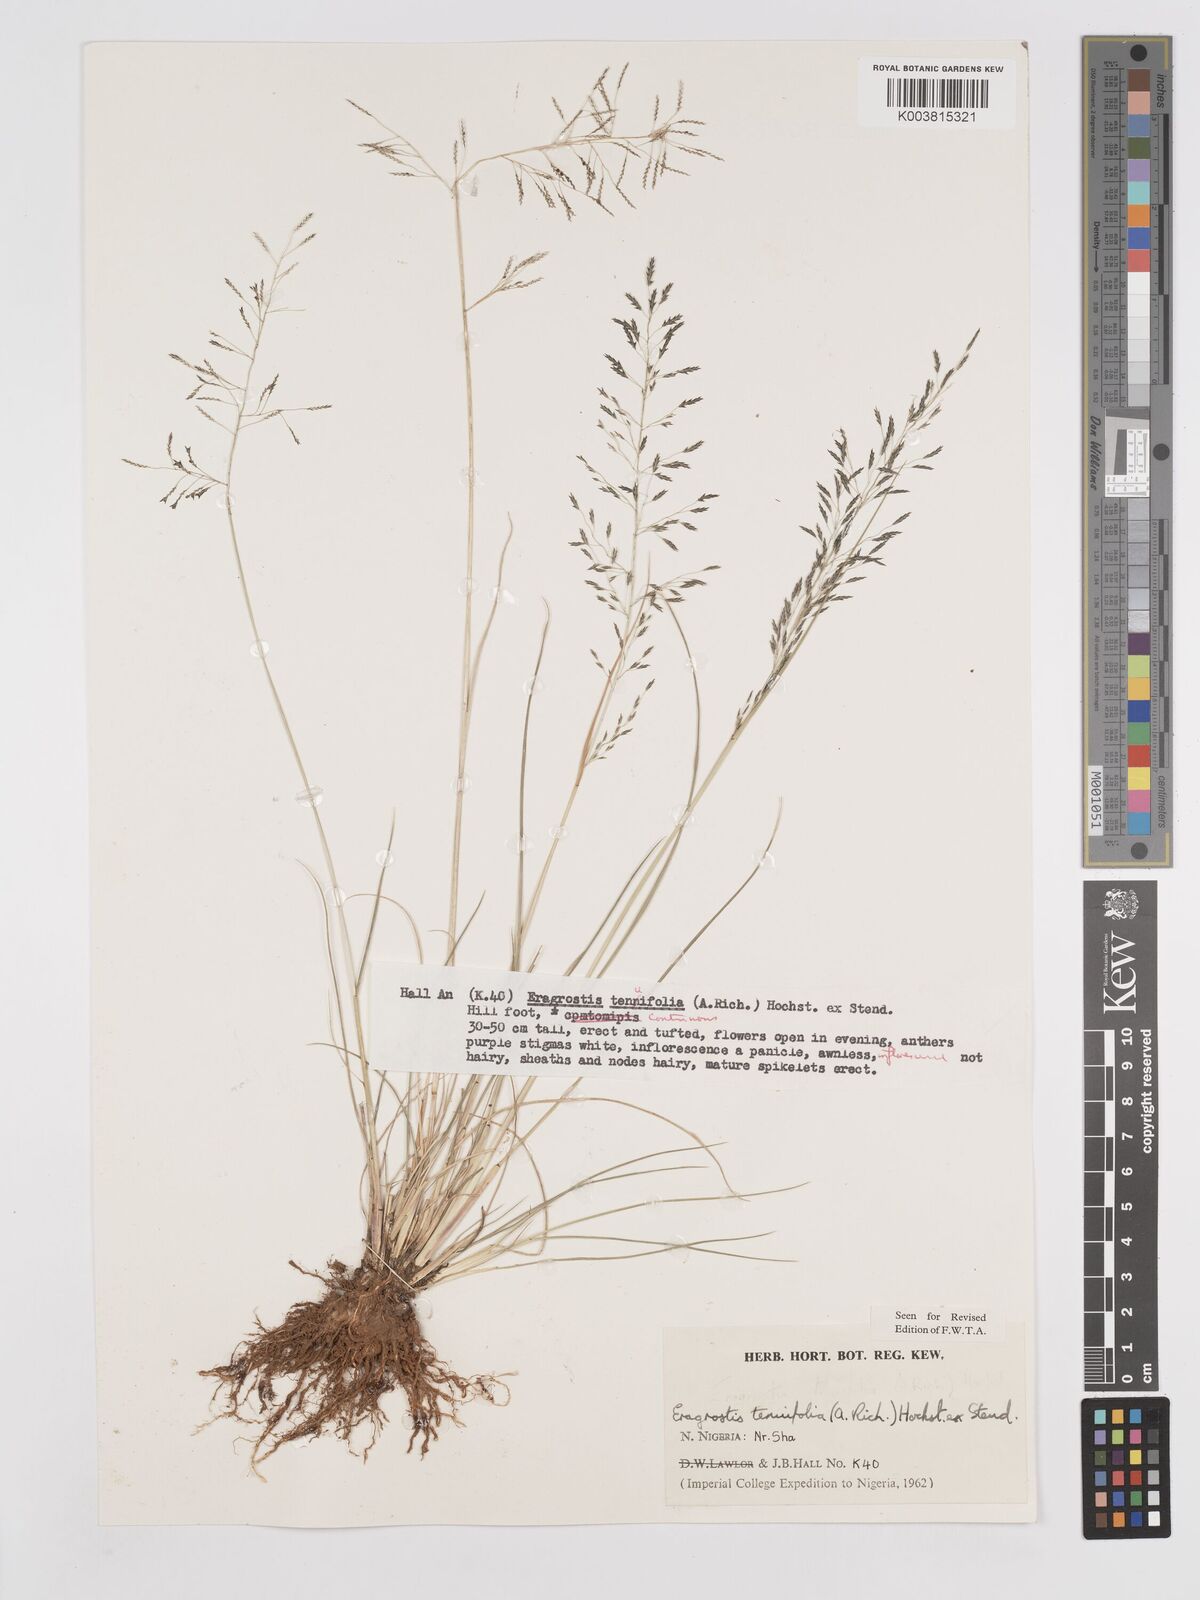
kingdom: Plantae
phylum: Tracheophyta
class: Liliopsida
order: Poales
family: Poaceae
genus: Eragrostis
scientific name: Eragrostis tenuifolia
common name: Elastic grass
